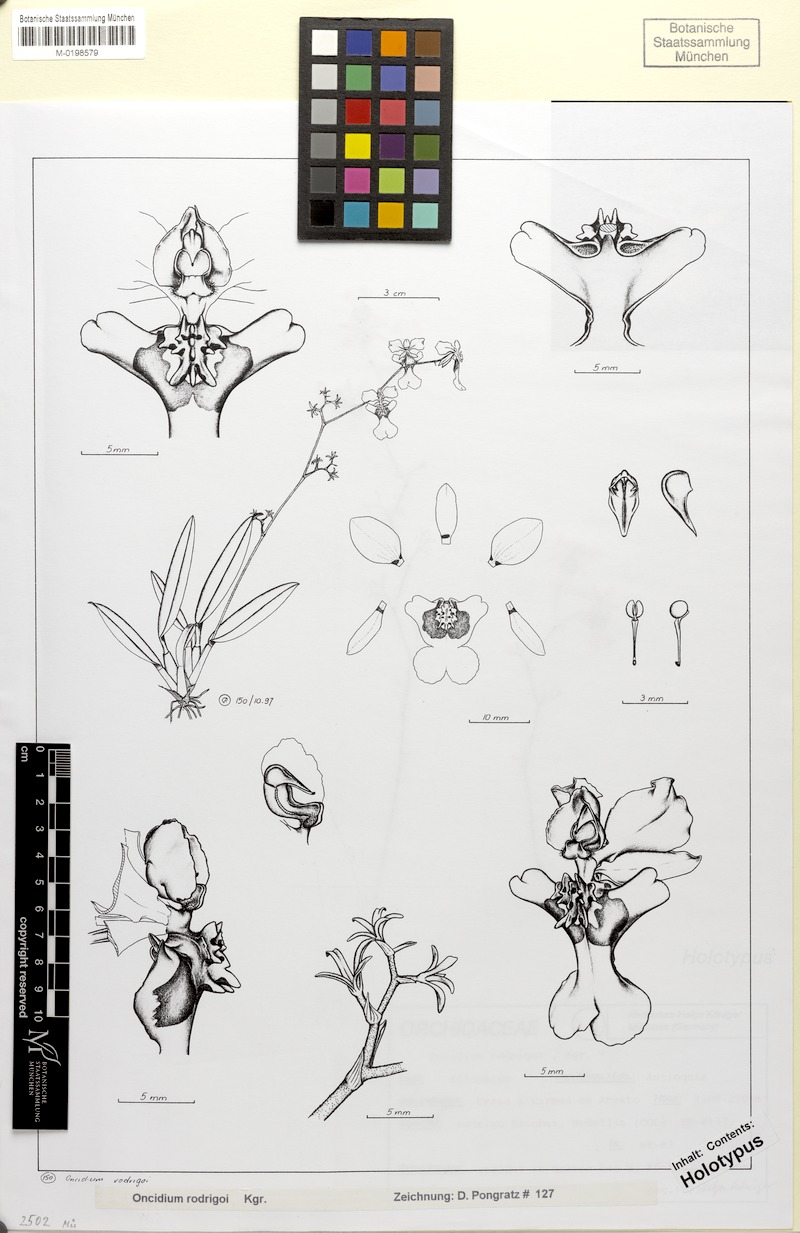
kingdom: Plantae
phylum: Tracheophyta
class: Liliopsida
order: Asparagales
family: Orchidaceae
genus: Oncidium
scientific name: Oncidium rodrigoi
